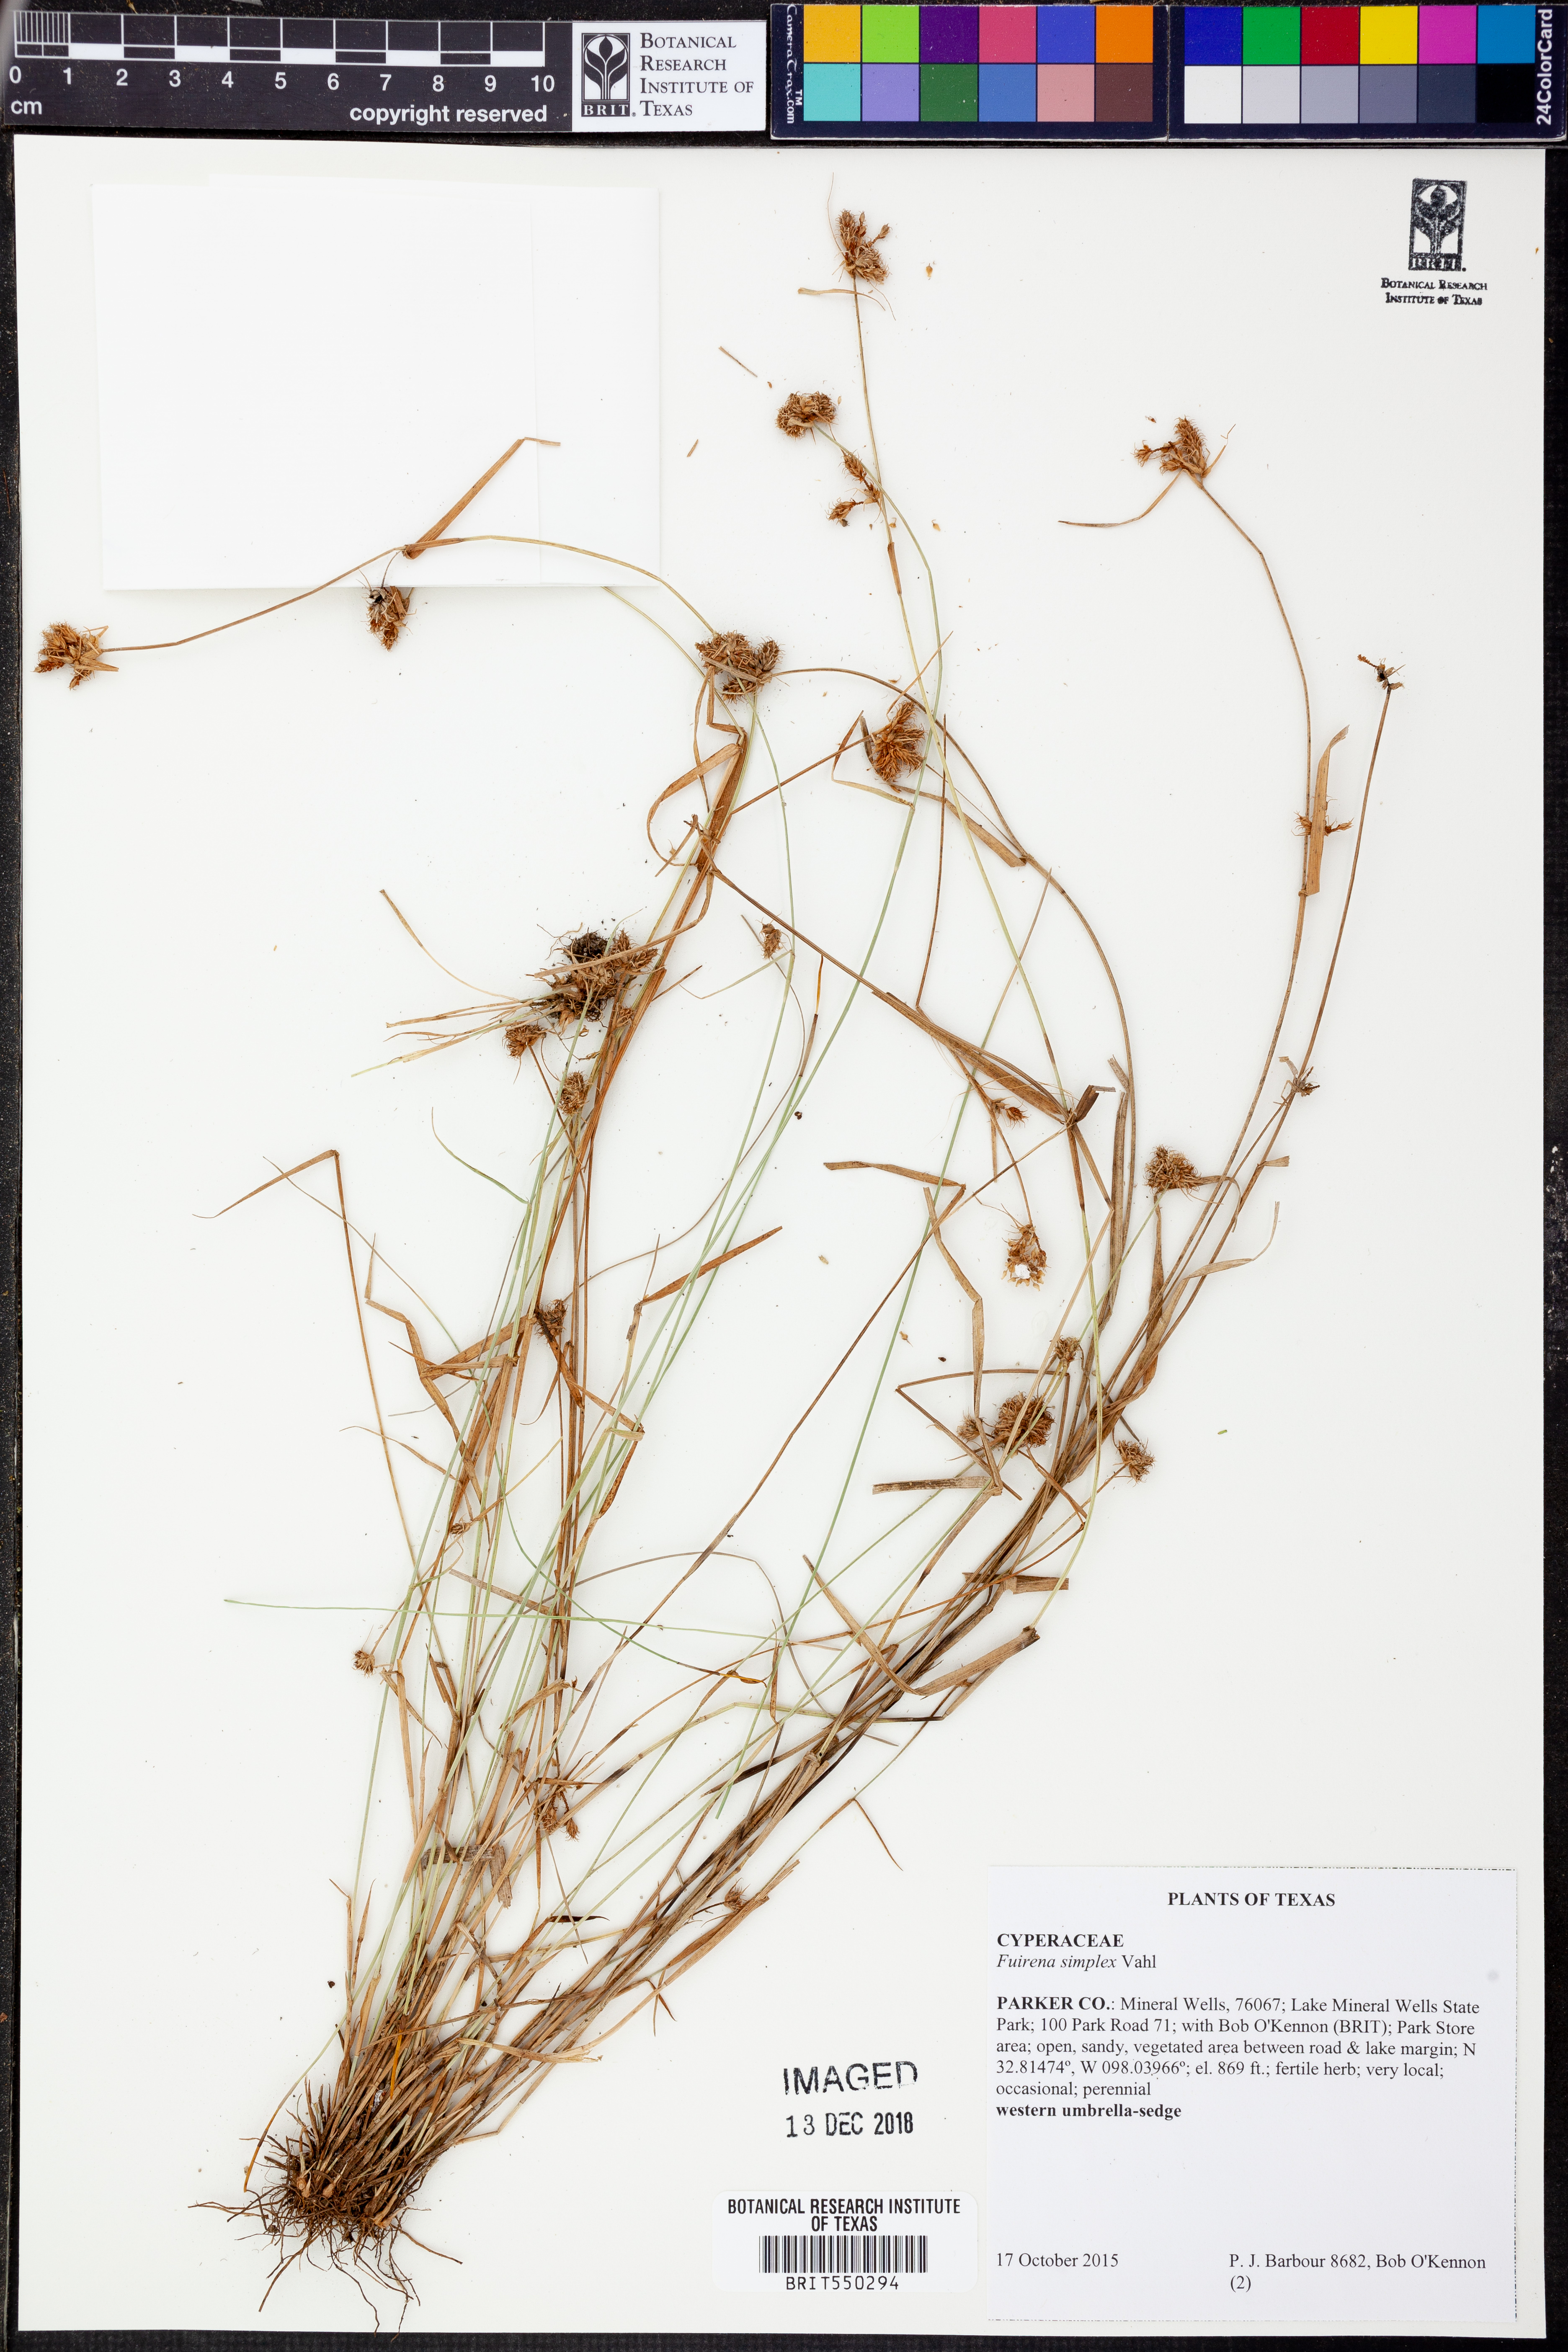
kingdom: Plantae
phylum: Tracheophyta
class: Liliopsida
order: Poales
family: Cyperaceae
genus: Fuirena
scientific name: Fuirena simplex
